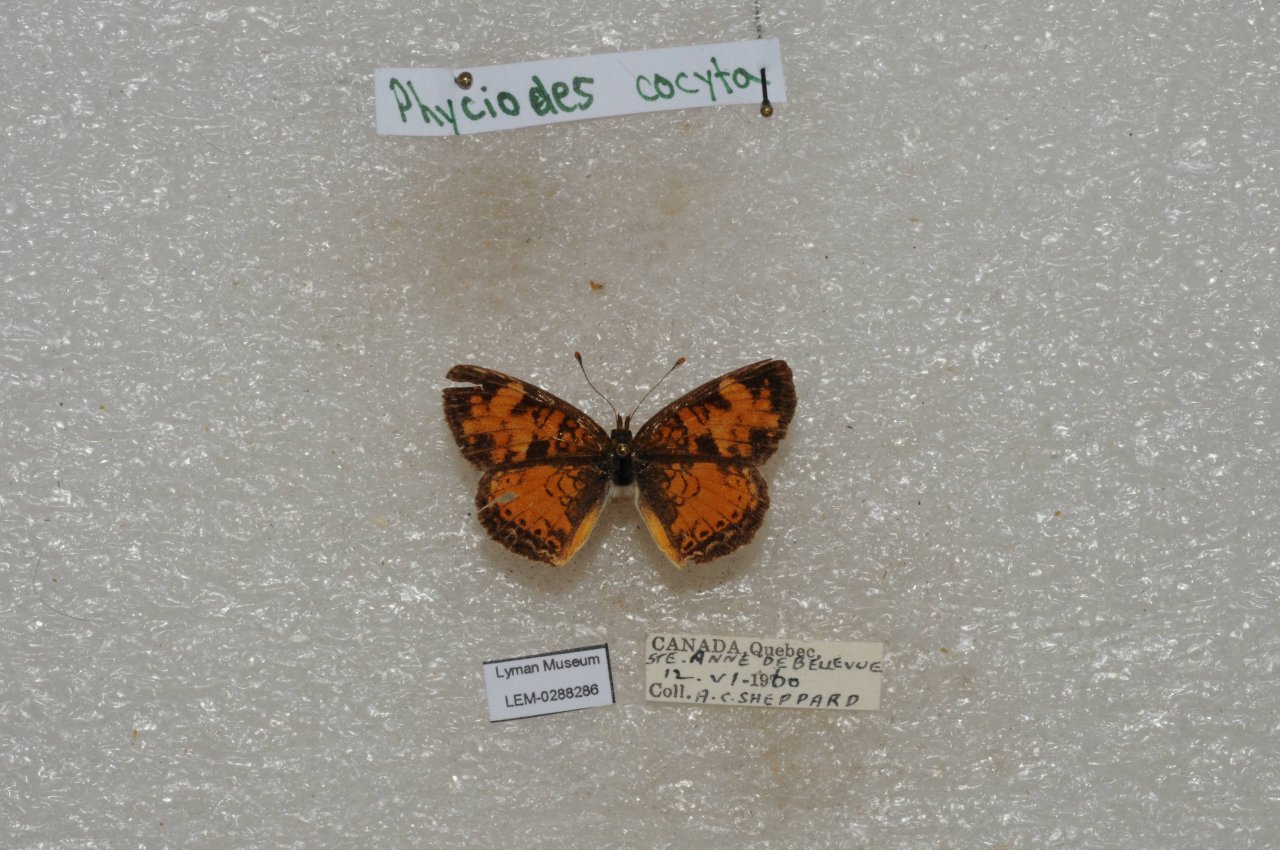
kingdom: Animalia
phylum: Arthropoda
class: Insecta
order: Lepidoptera
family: Nymphalidae
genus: Phyciodes
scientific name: Phyciodes tharos
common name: Northern Crescent
